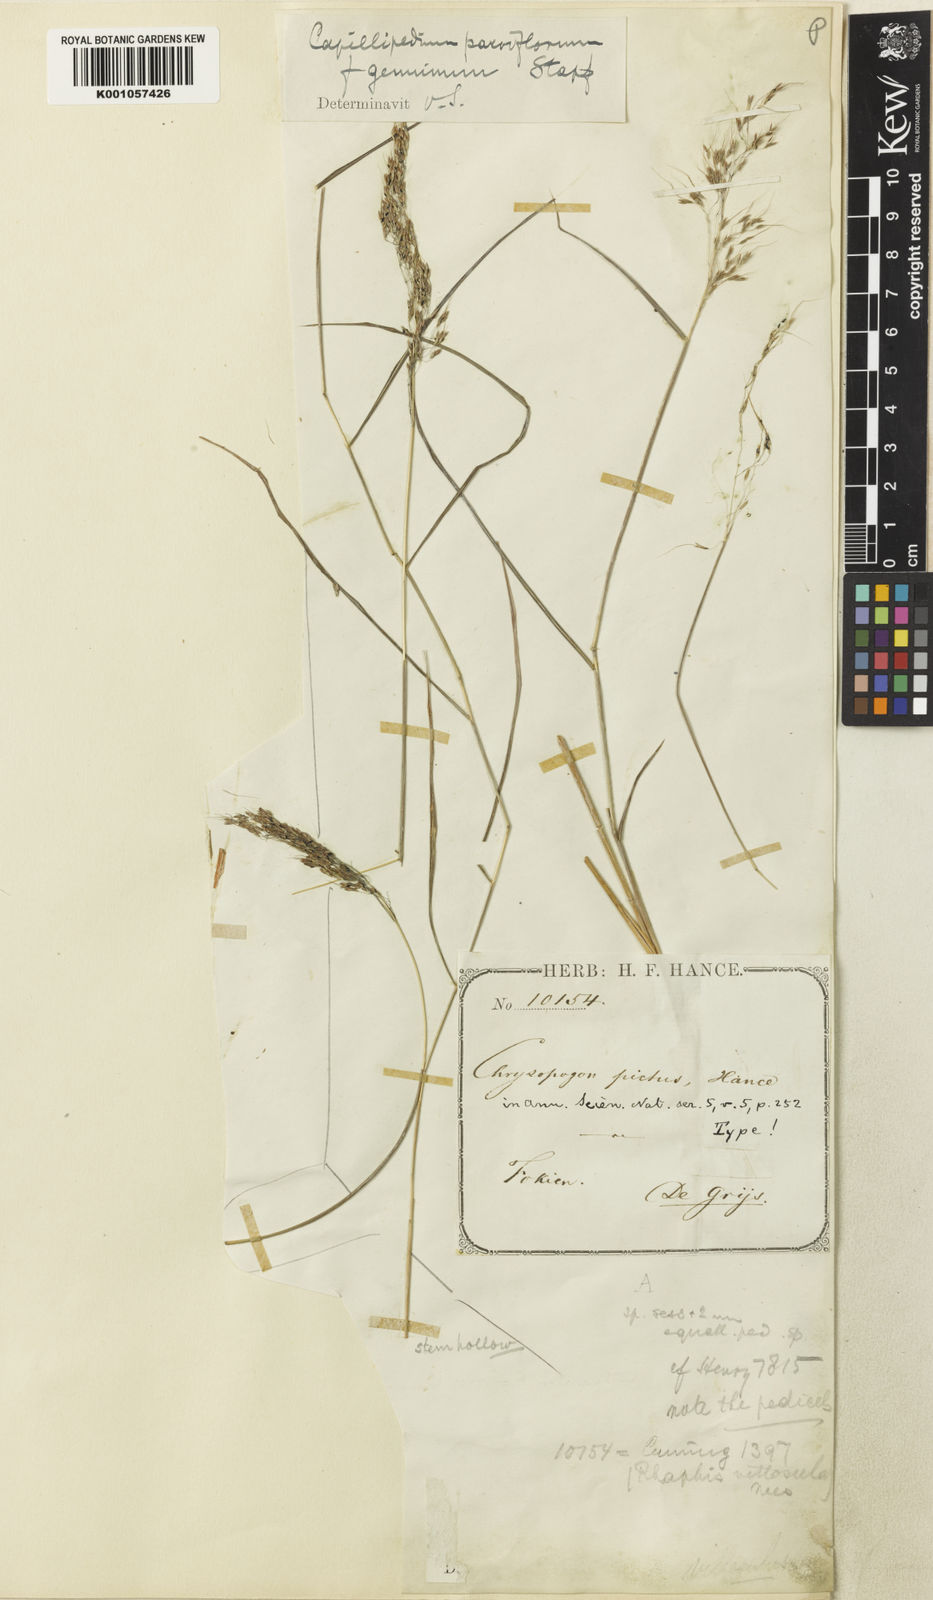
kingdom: Plantae
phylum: Tracheophyta
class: Liliopsida
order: Poales
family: Poaceae
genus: Capillipedium
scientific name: Capillipedium parviflorum
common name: Golden-beard
